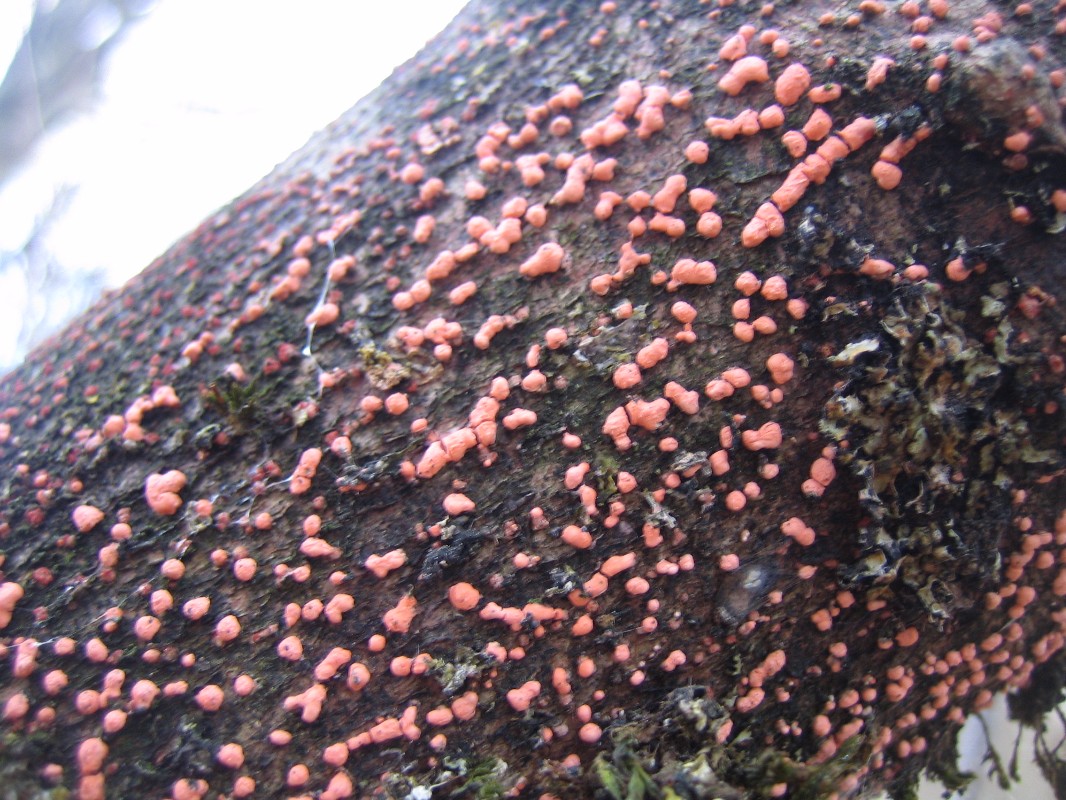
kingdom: Fungi
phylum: Ascomycota
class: Sordariomycetes
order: Hypocreales
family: Nectriaceae
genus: Nectria
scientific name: Nectria cinnabarina
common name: almindelig cinnobersvamp
